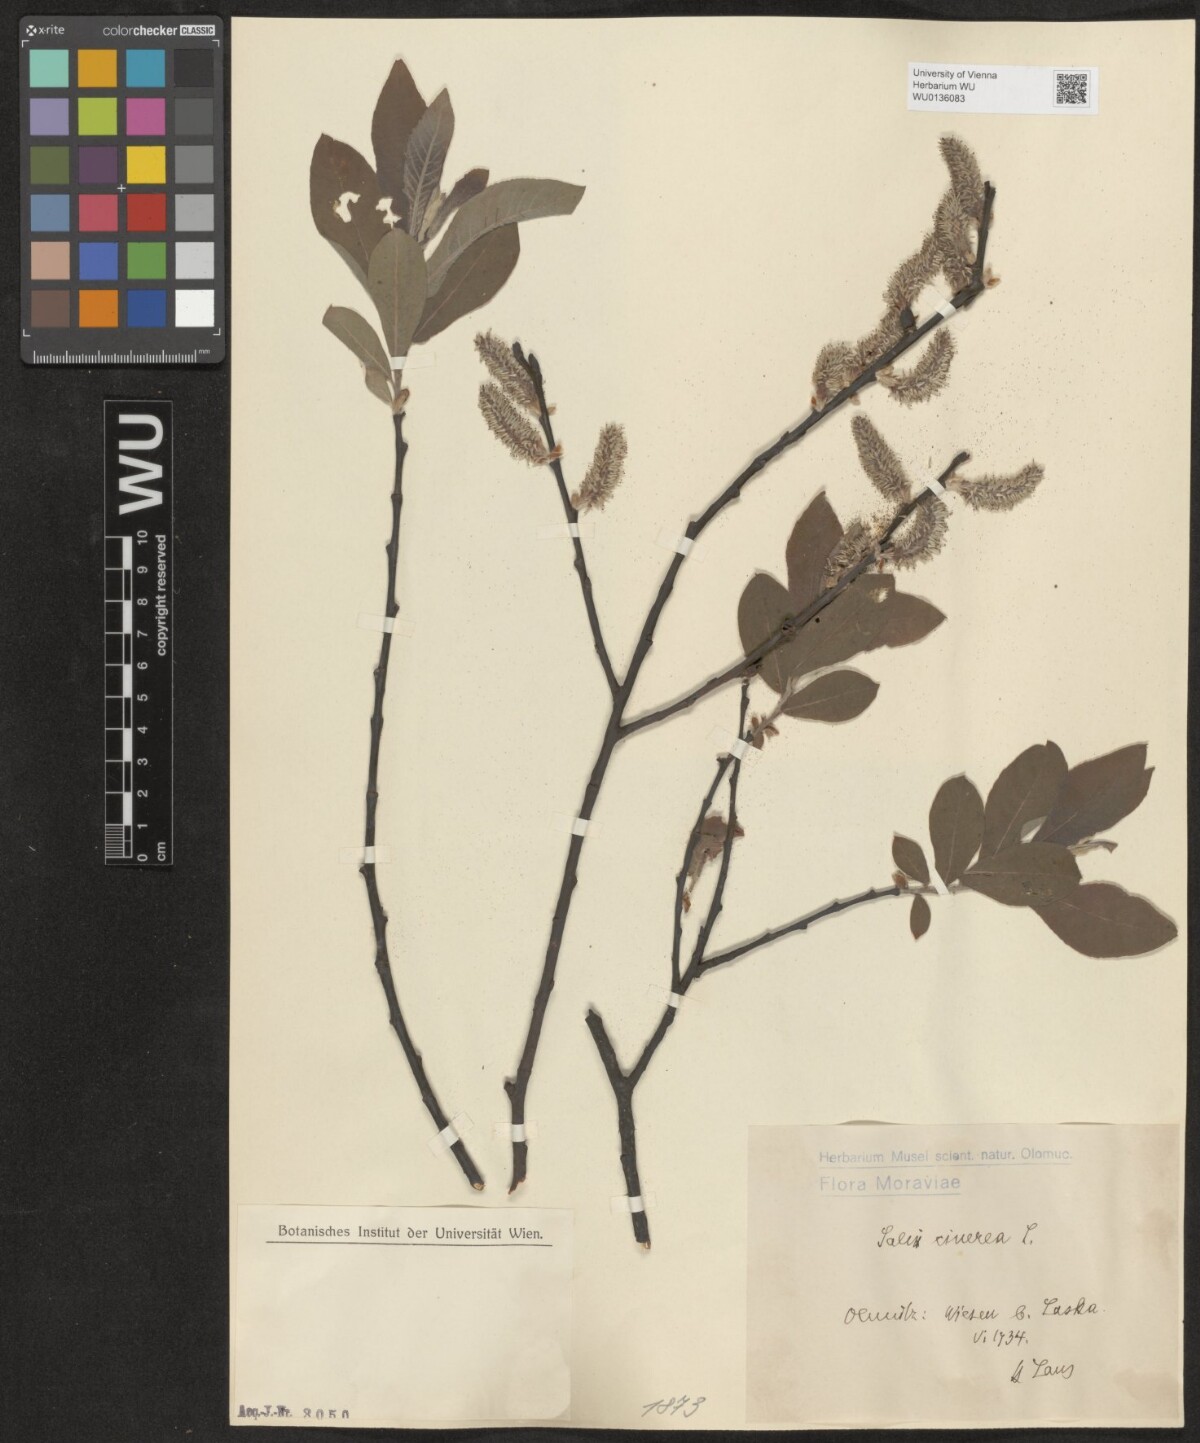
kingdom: Plantae
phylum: Tracheophyta
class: Magnoliopsida
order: Malpighiales
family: Salicaceae
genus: Salix
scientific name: Salix cinerea
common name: Common sallow
